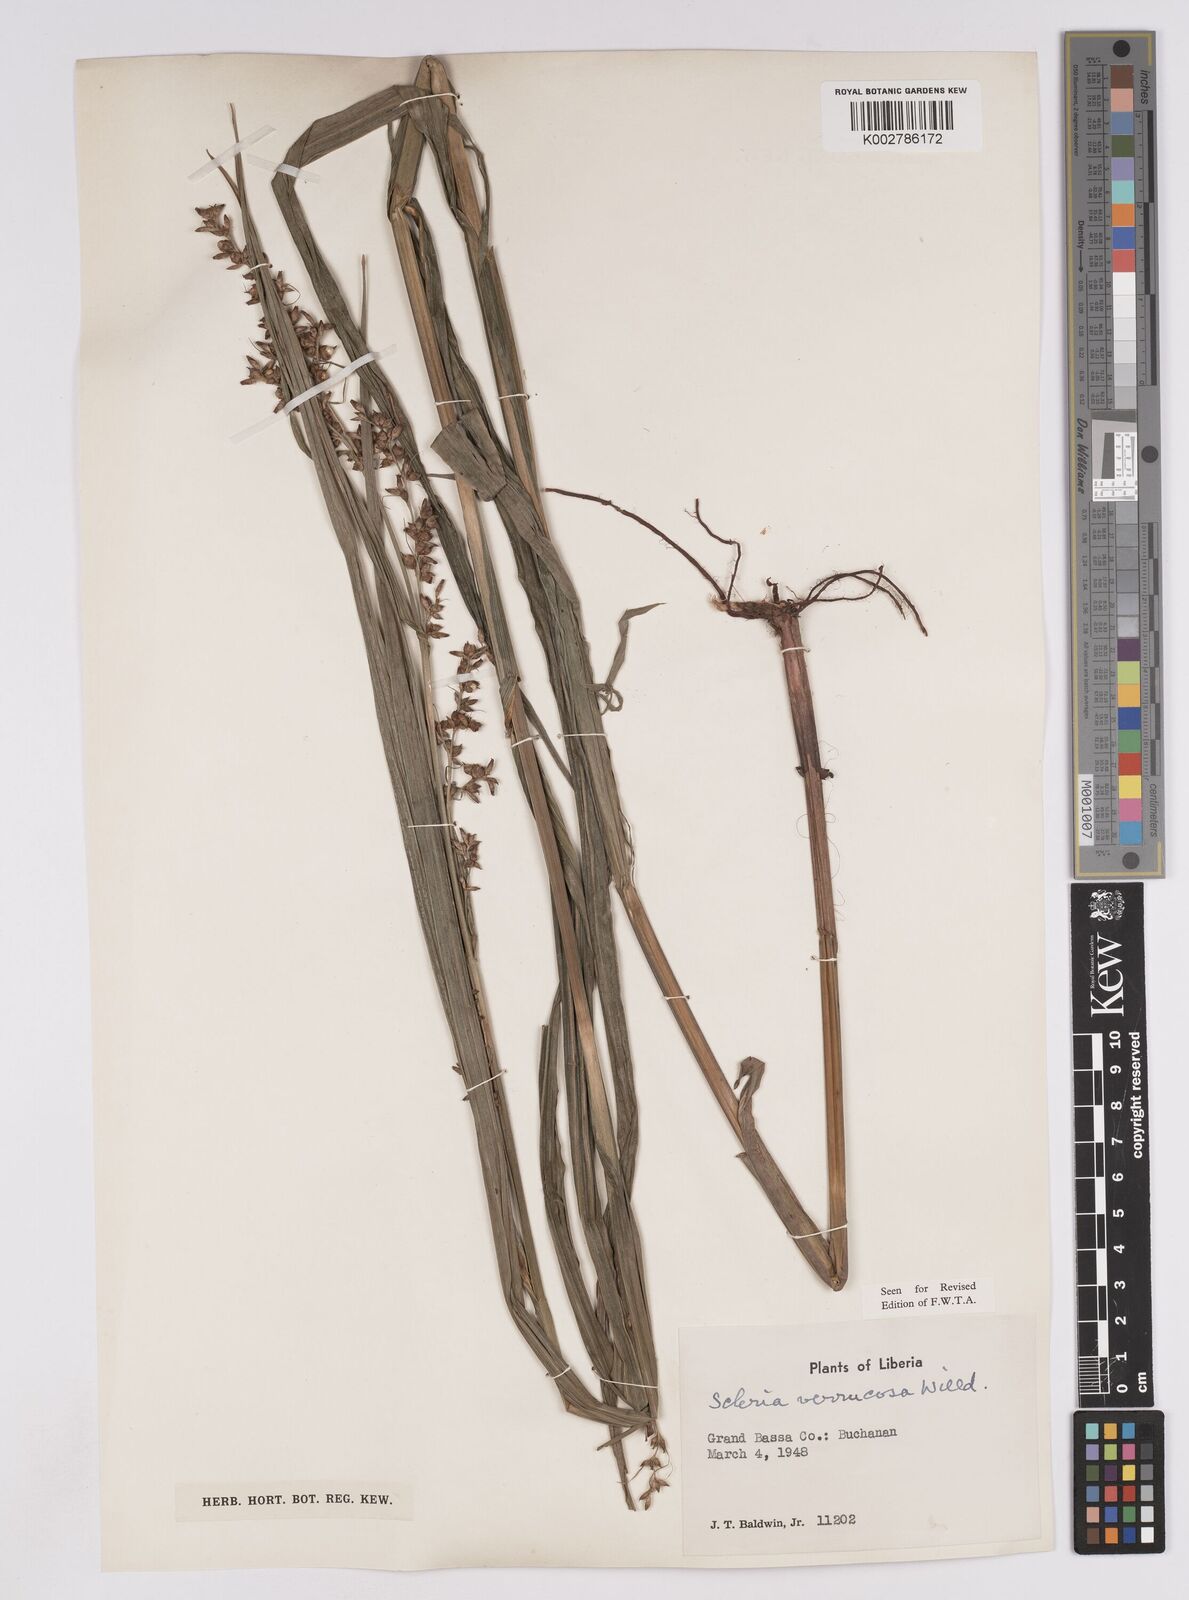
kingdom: Plantae
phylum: Tracheophyta
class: Liliopsida
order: Poales
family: Cyperaceae
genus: Scleria
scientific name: Scleria verrucosa
